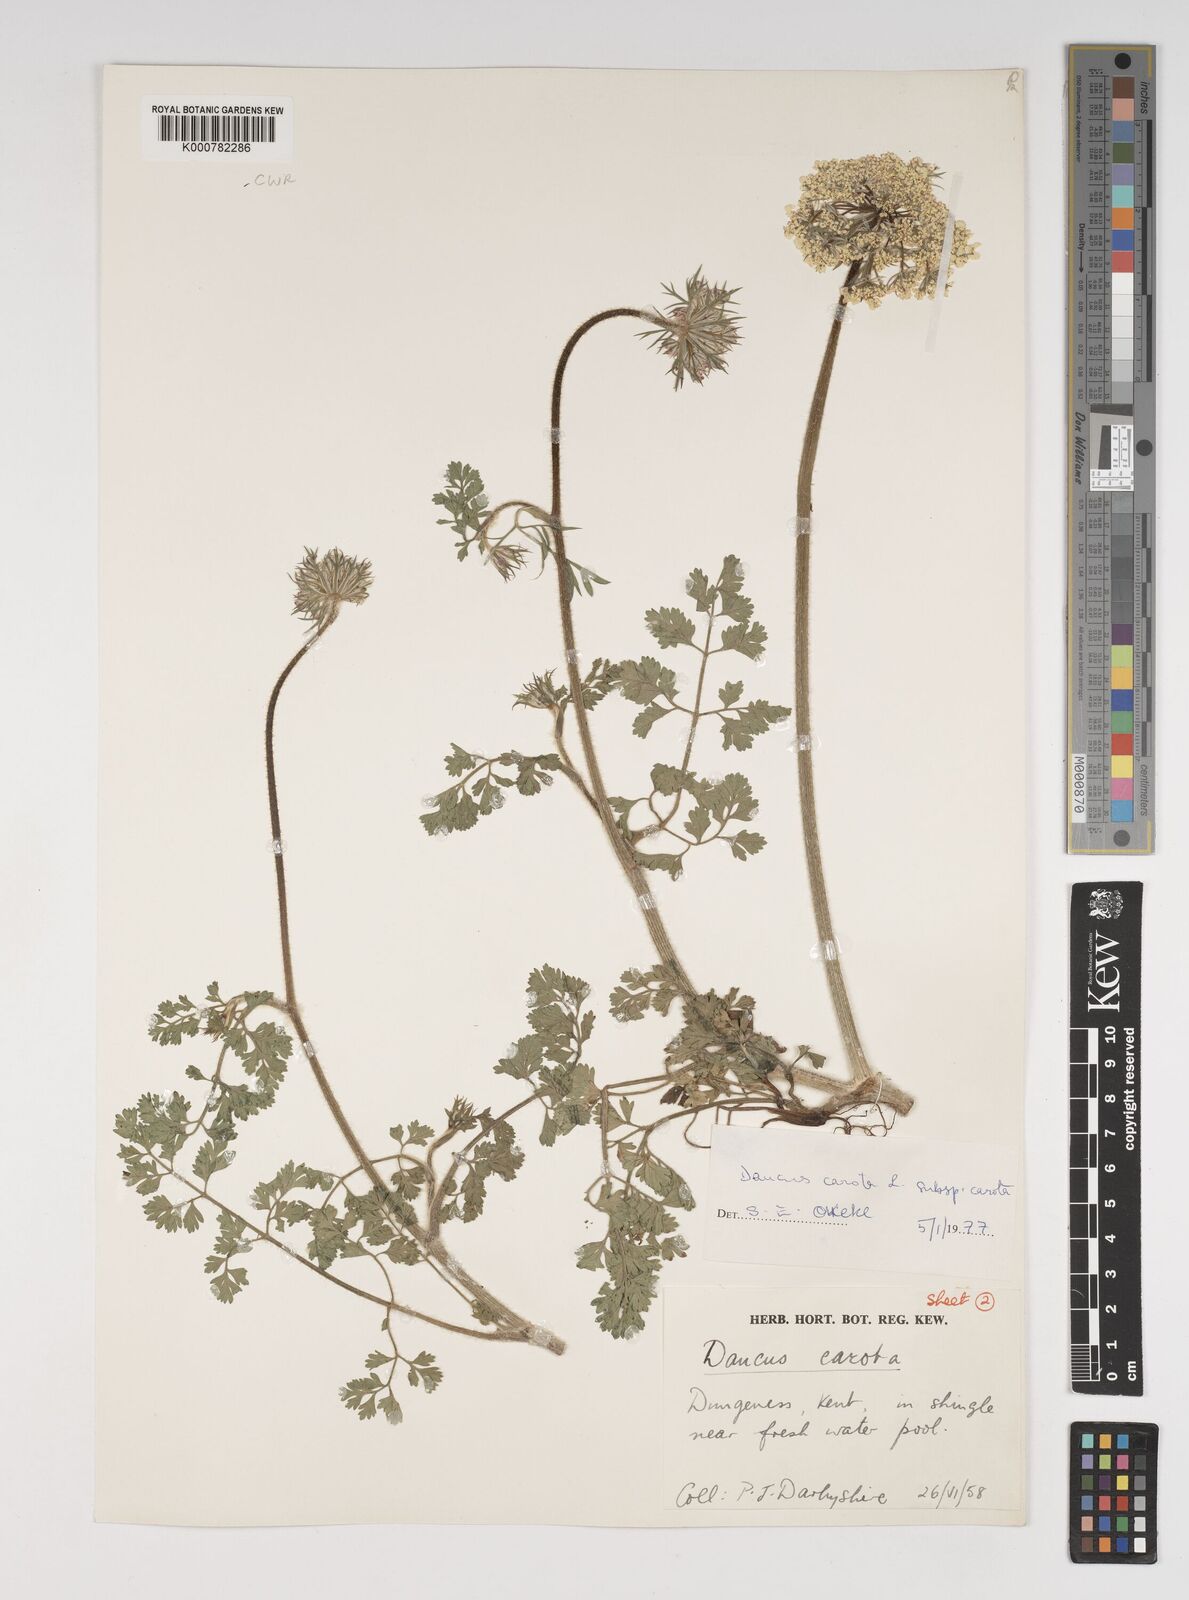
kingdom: Plantae
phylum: Tracheophyta
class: Magnoliopsida
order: Apiales
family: Apiaceae
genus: Daucus
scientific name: Daucus carota
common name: Wild carrot
